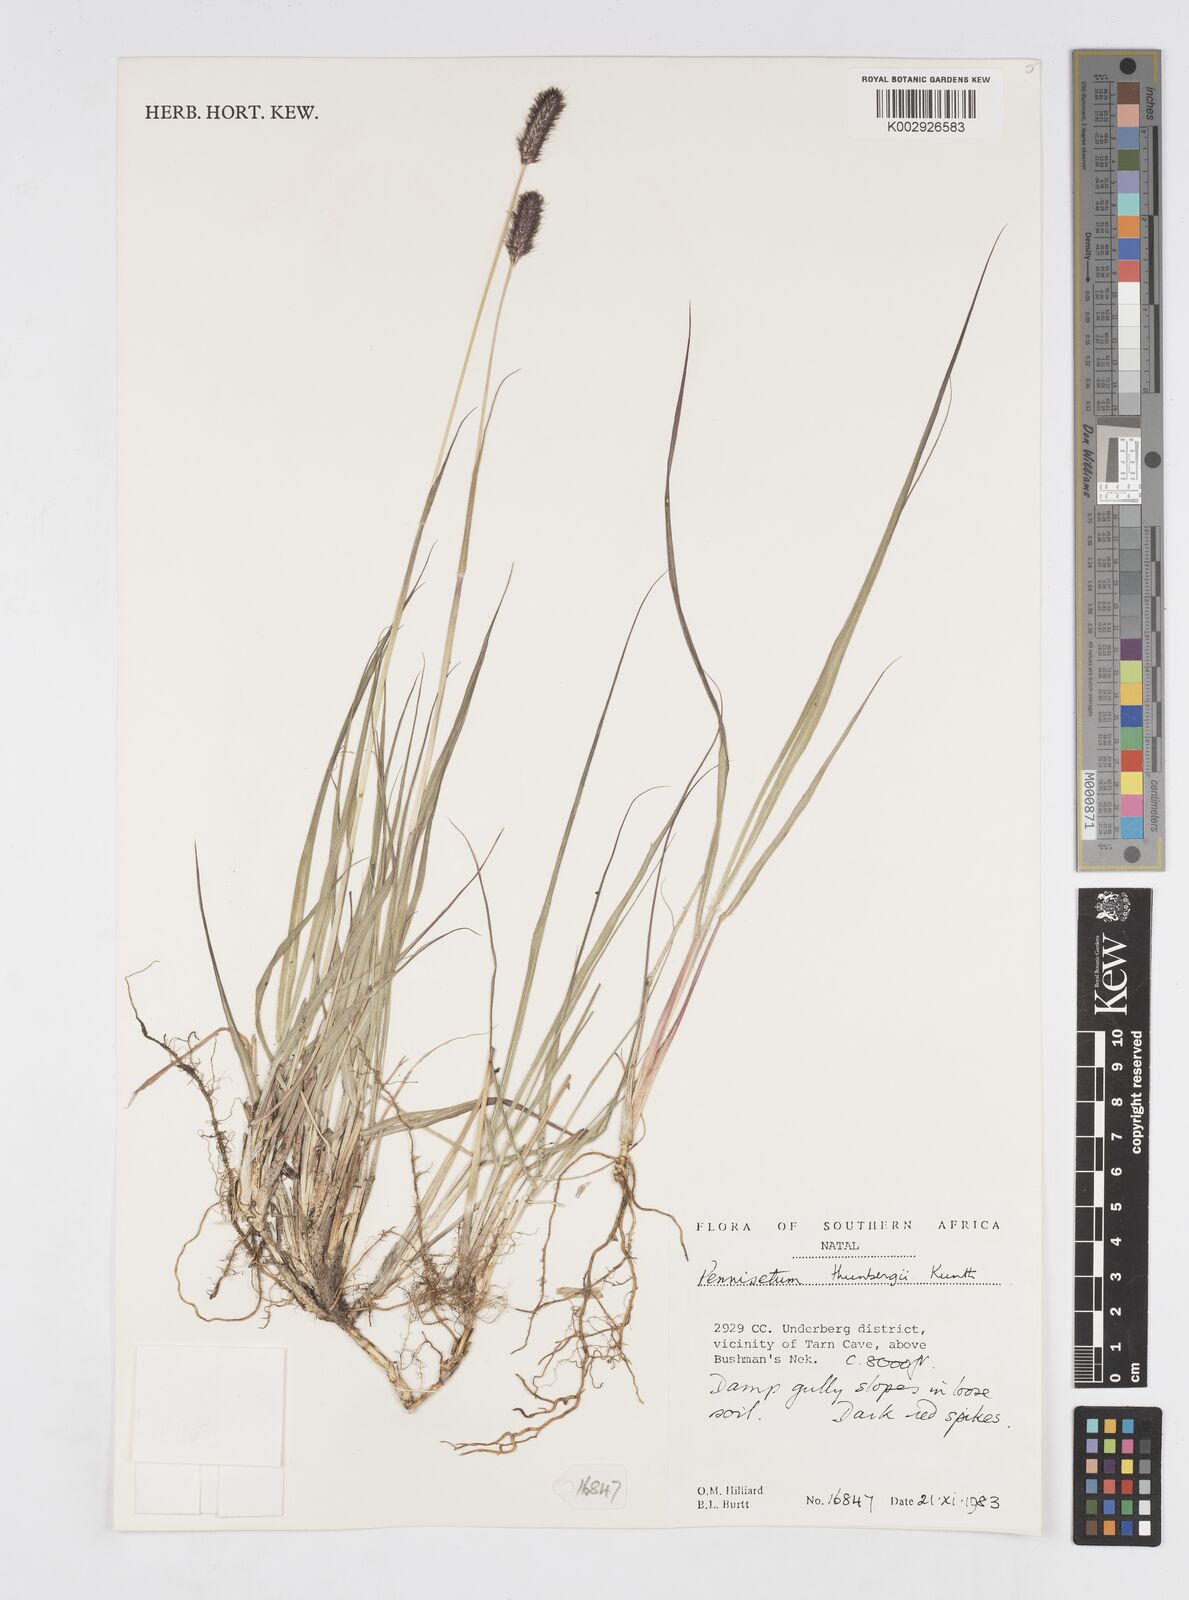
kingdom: Plantae
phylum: Tracheophyta
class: Liliopsida
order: Poales
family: Poaceae
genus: Cenchrus
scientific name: Cenchrus geniculatus
